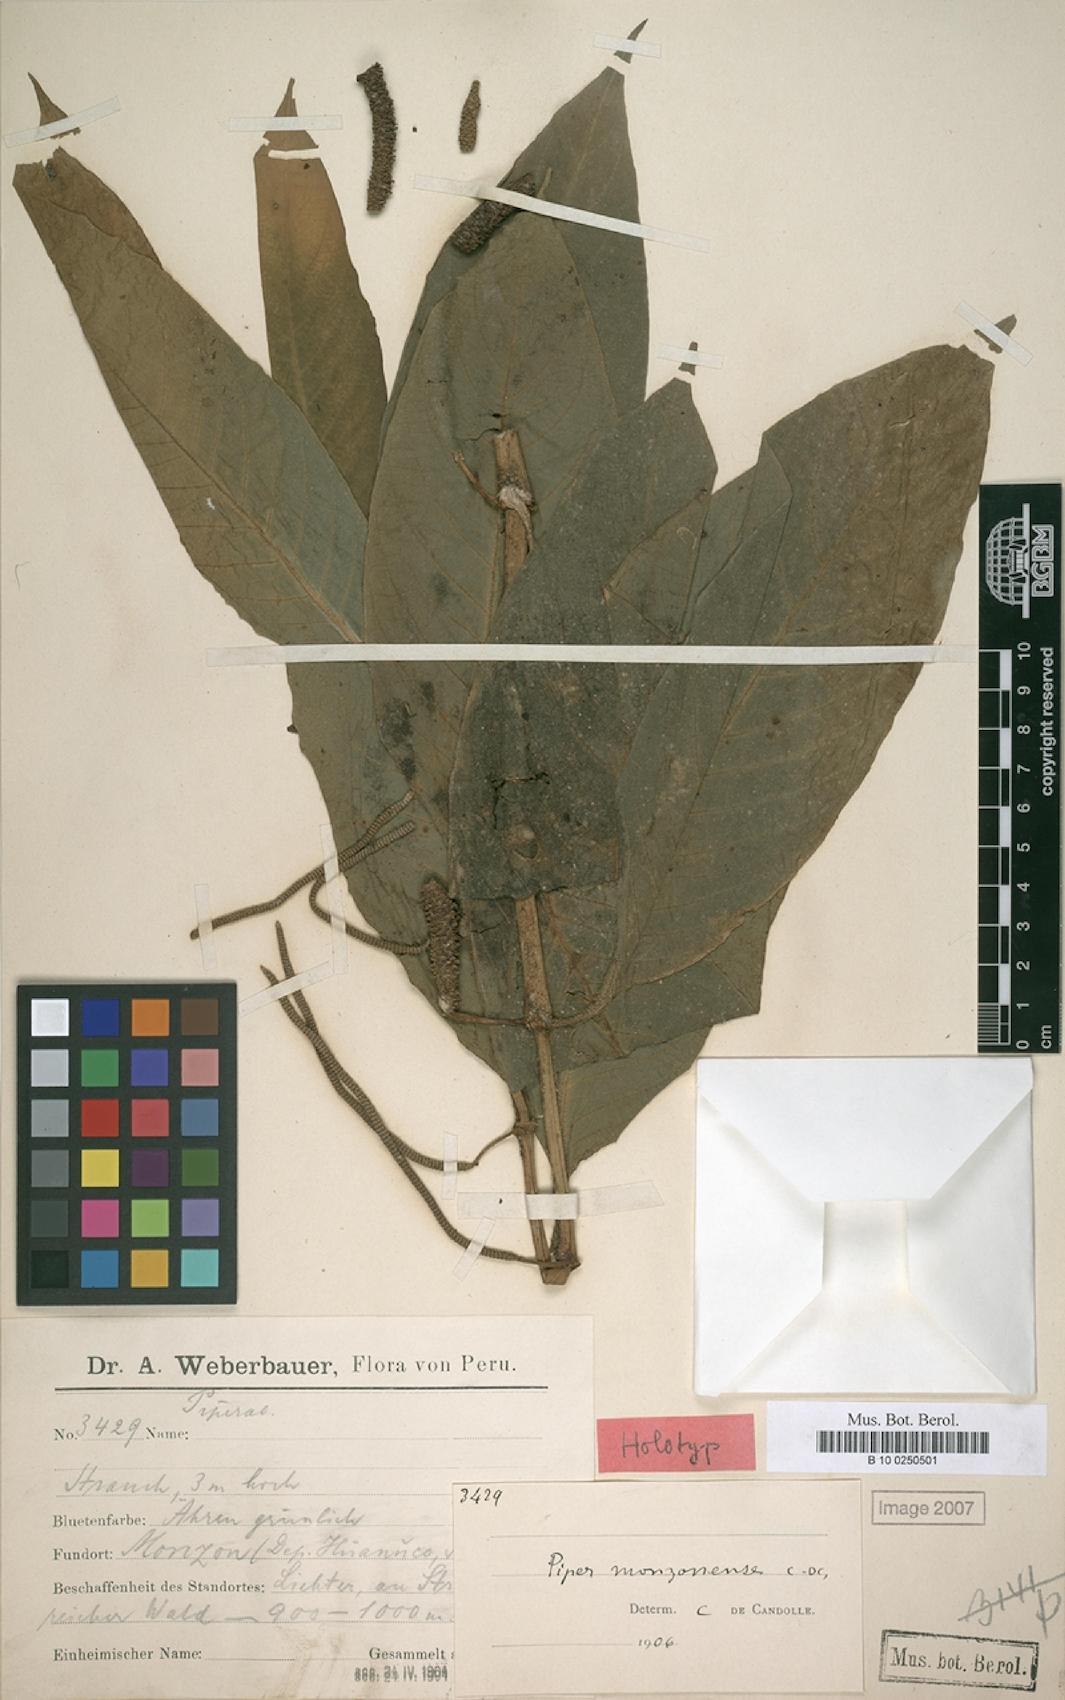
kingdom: Plantae
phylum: Tracheophyta
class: Magnoliopsida
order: Piperales
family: Piperaceae
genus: Piper
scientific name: Piper monzonense
